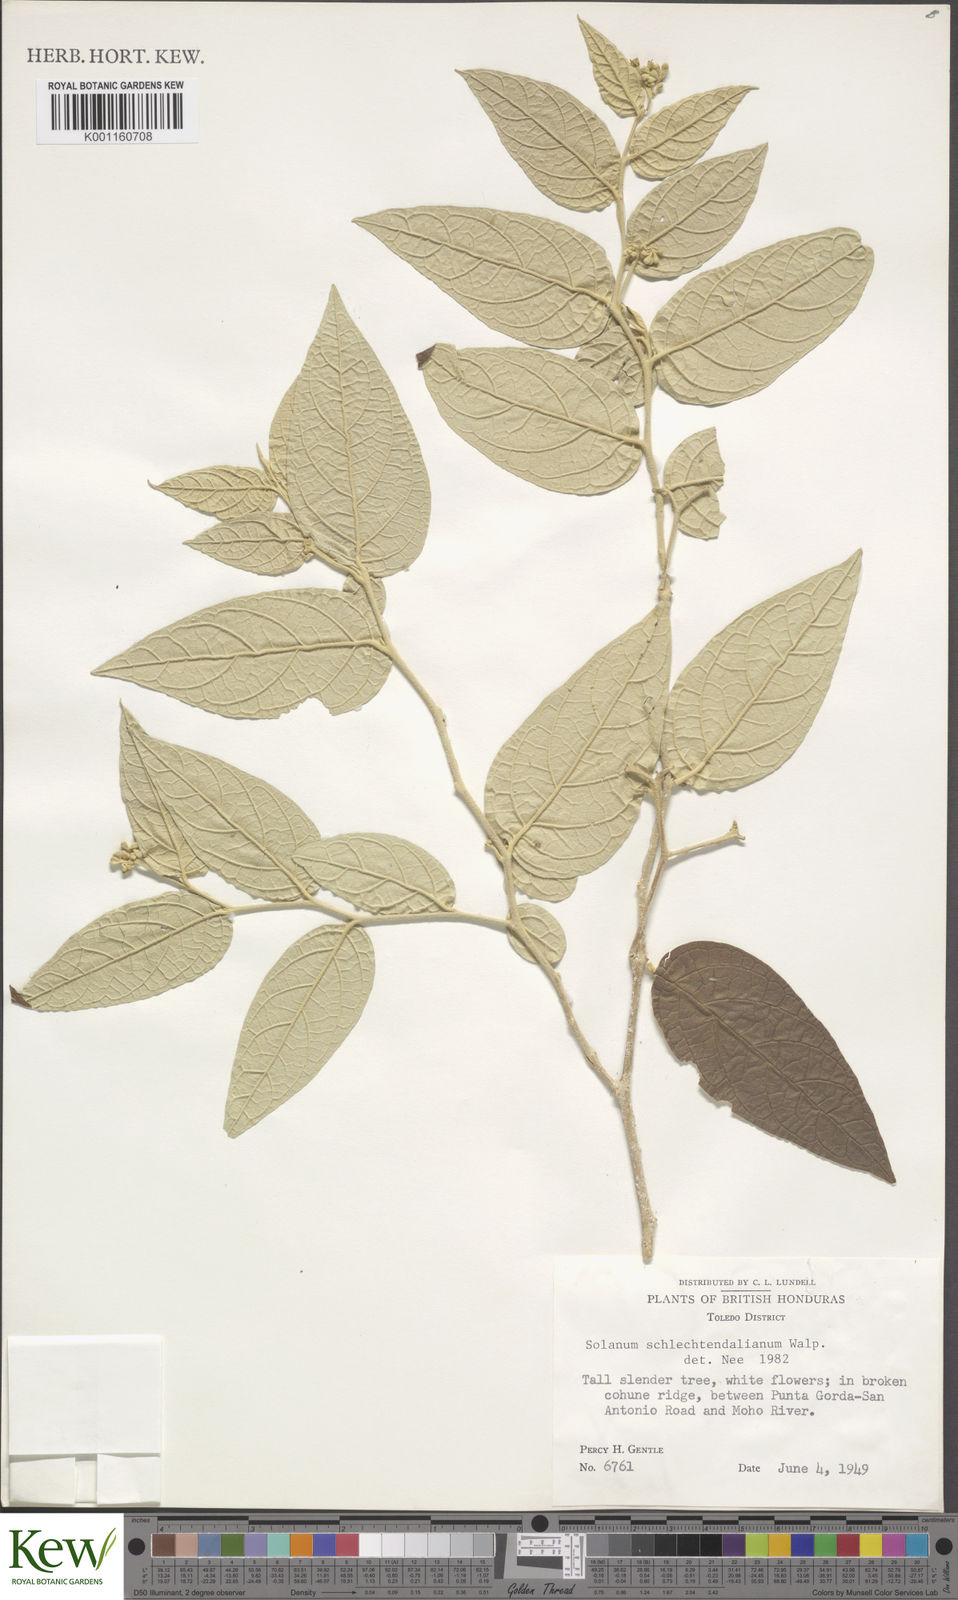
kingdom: Plantae
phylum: Tracheophyta
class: Magnoliopsida
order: Solanales
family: Solanaceae
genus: Solanum
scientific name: Solanum
